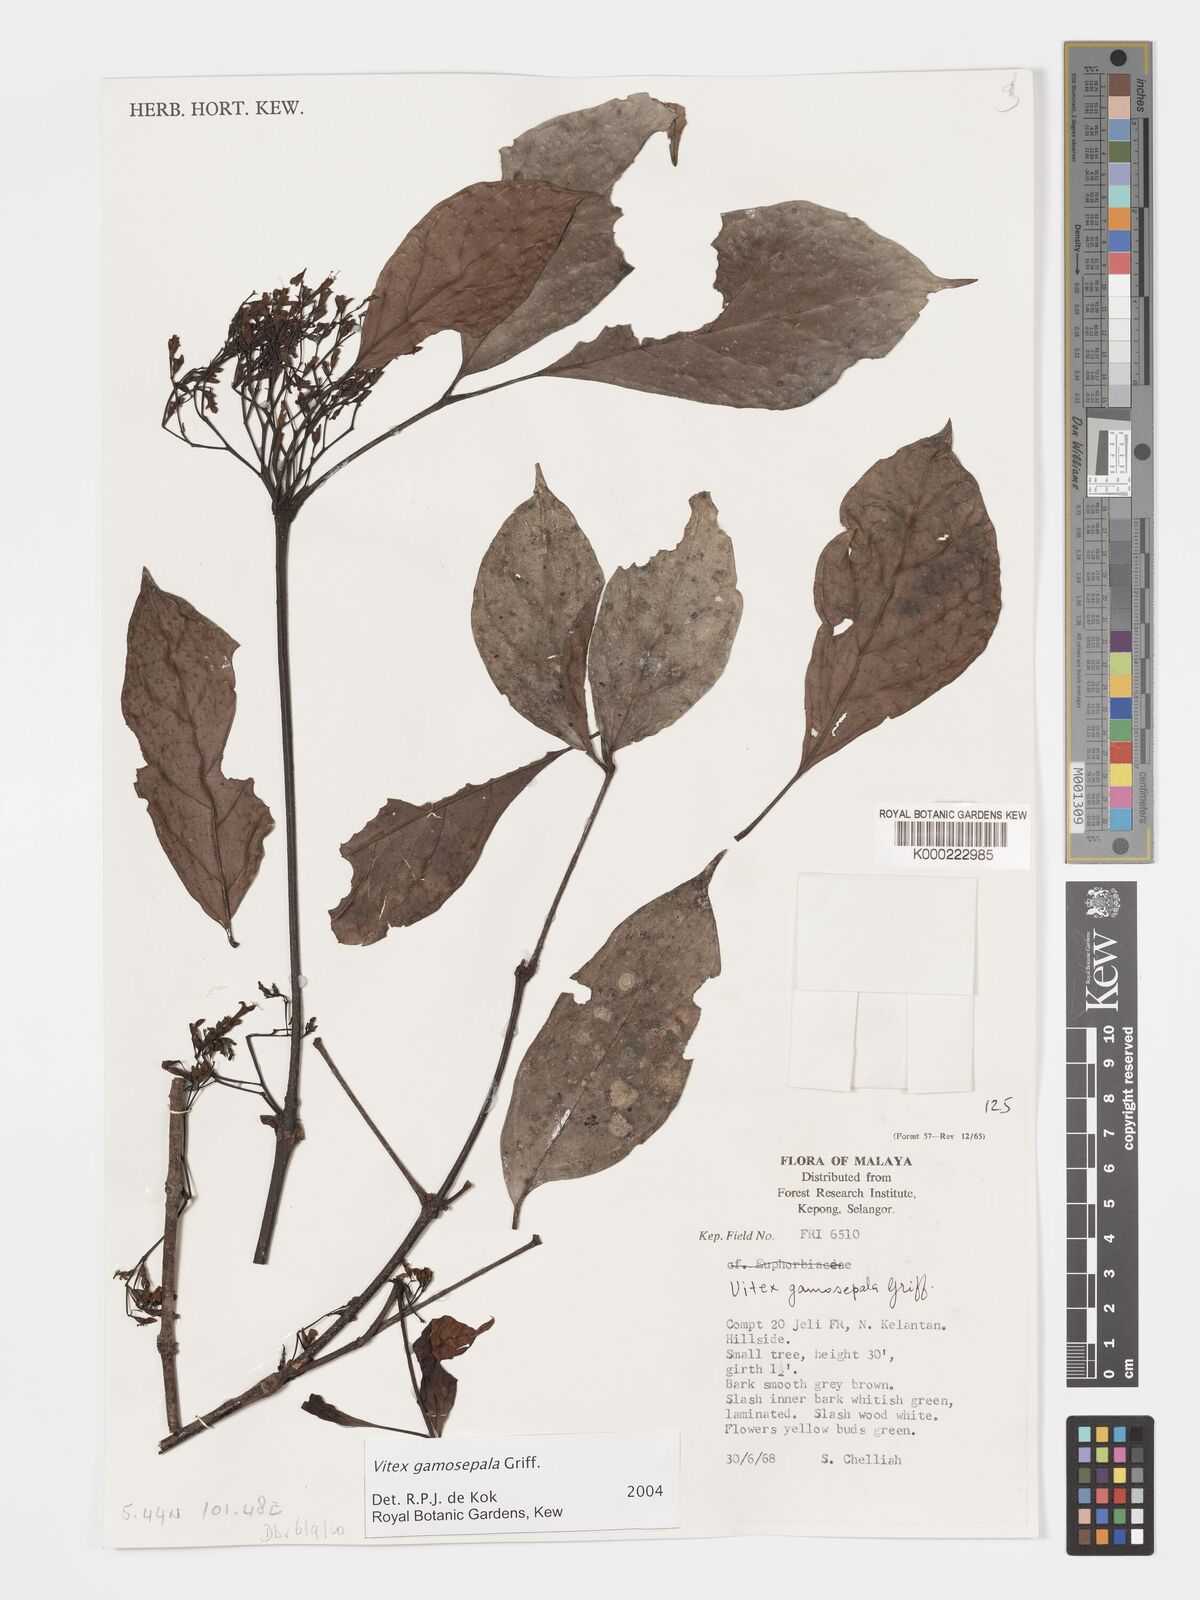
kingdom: Plantae
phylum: Tracheophyta
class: Magnoliopsida
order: Lamiales
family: Lamiaceae
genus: Vitex
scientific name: Vitex gamosepala
